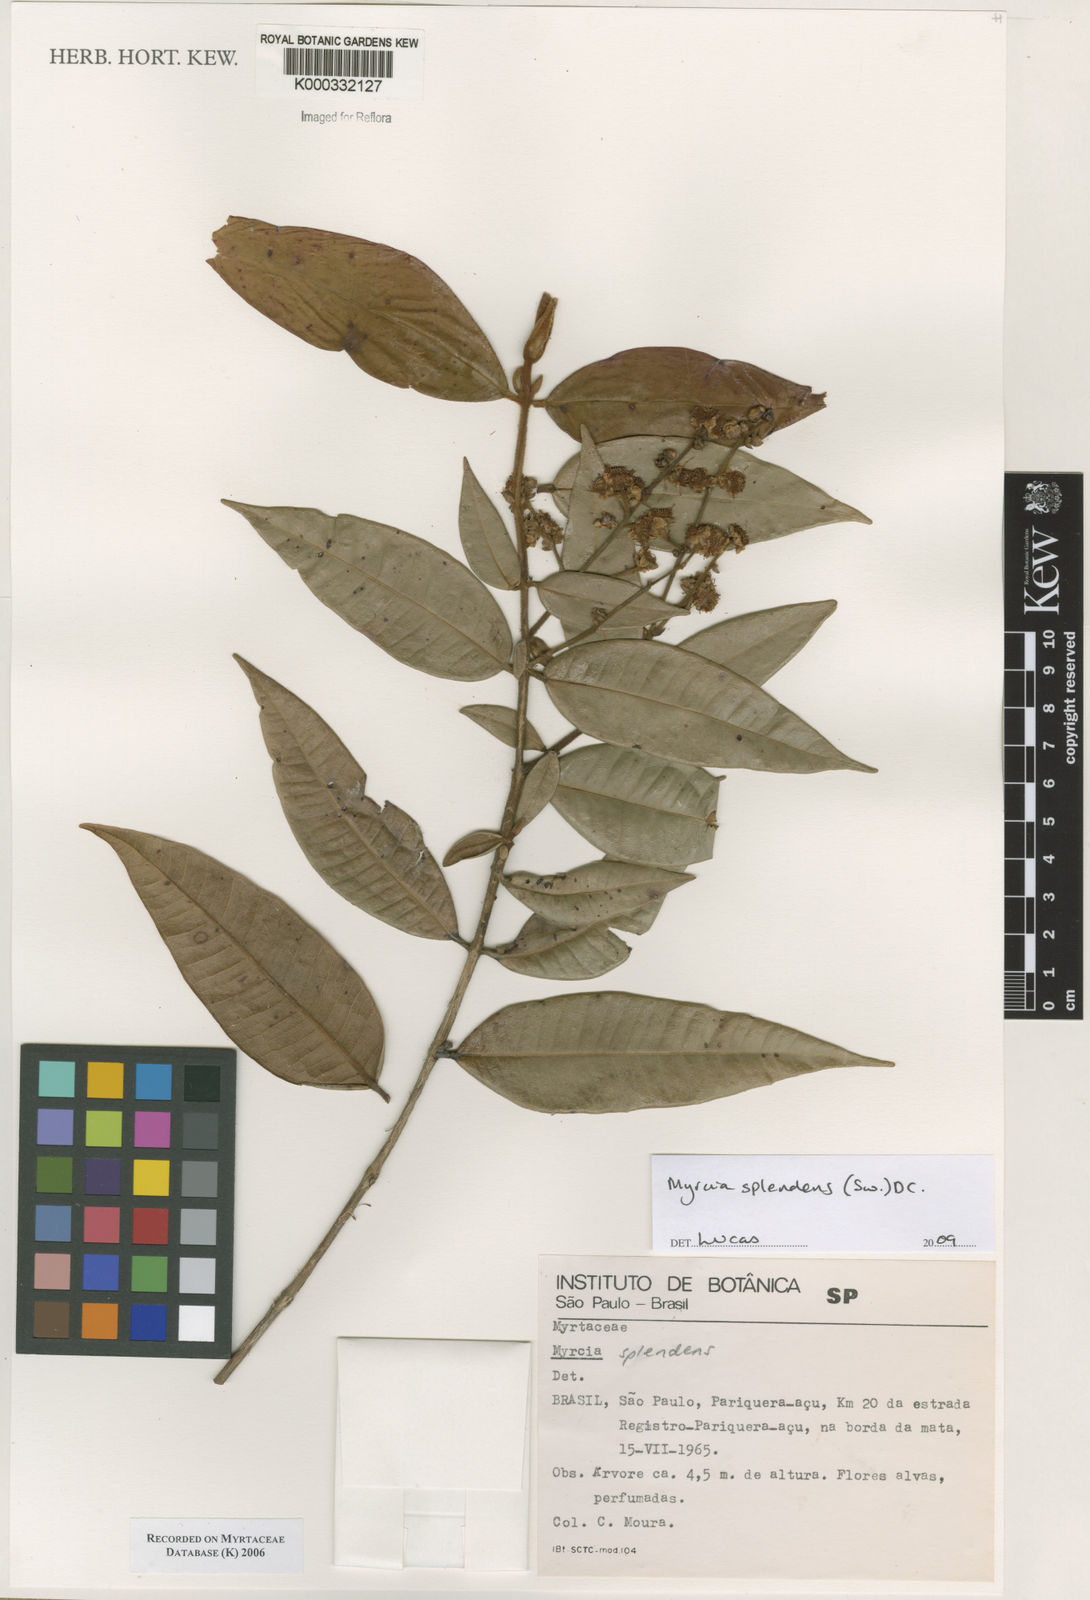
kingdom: Plantae
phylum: Tracheophyta
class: Magnoliopsida
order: Myrtales
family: Myrtaceae
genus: Myrcia
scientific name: Myrcia
